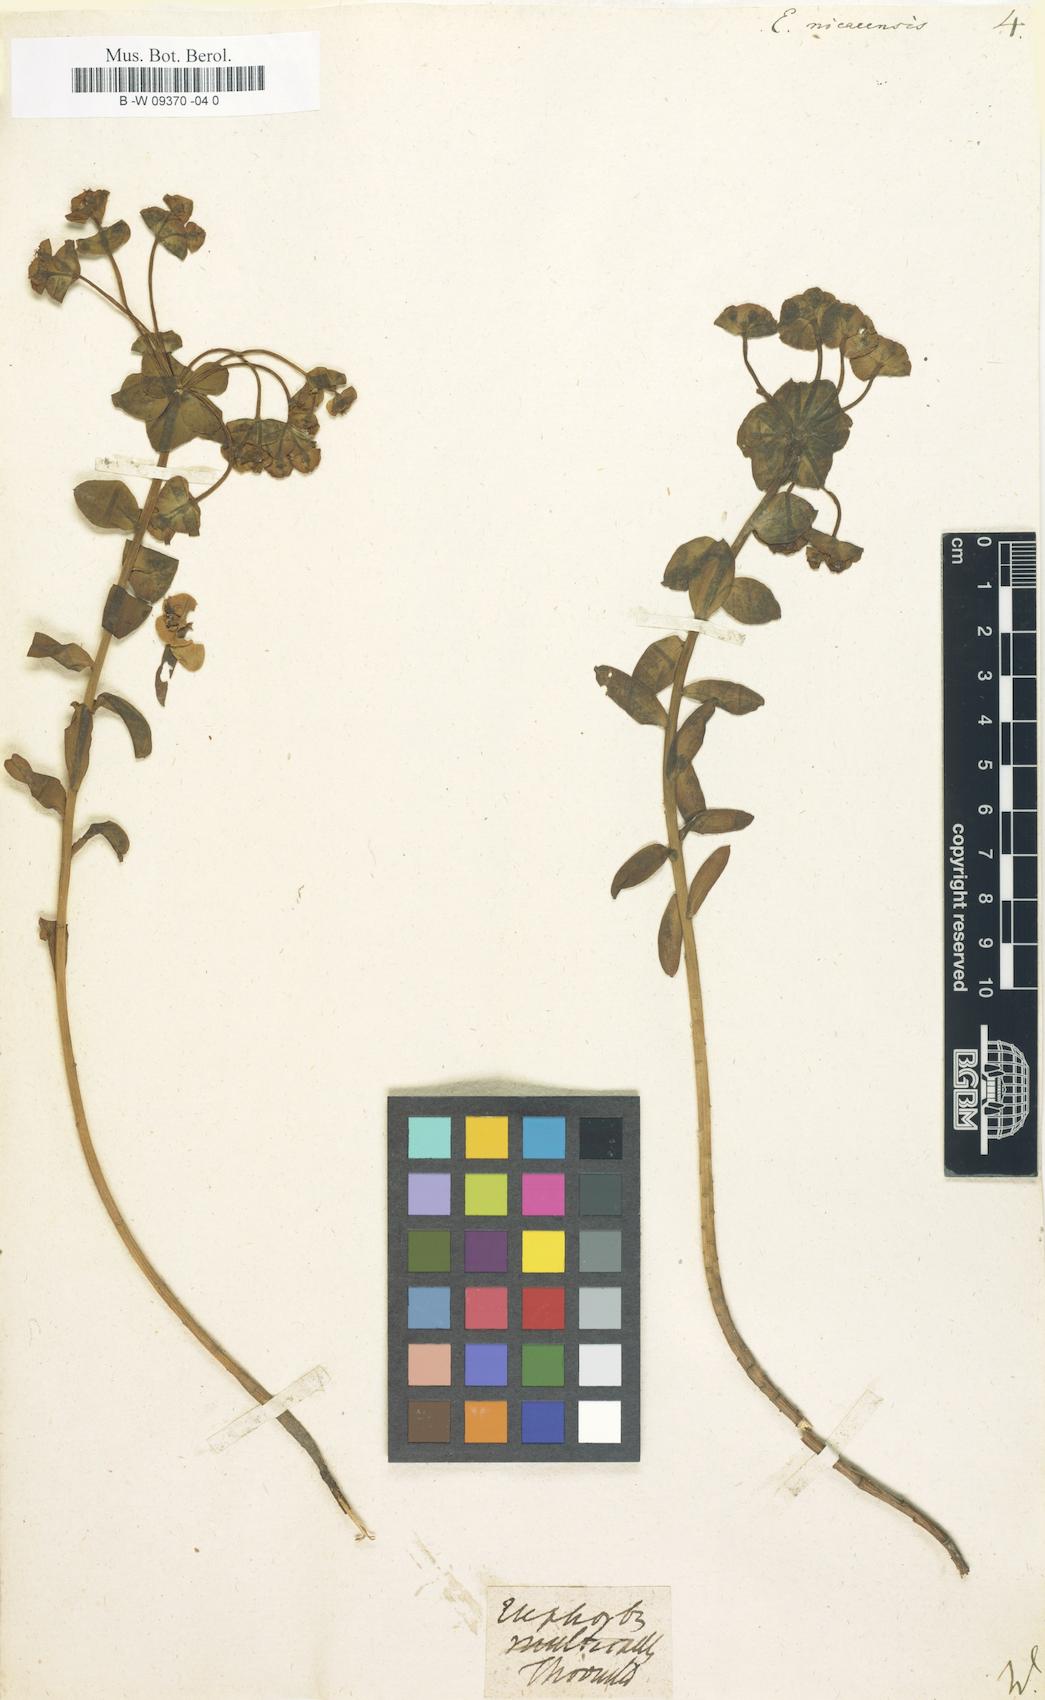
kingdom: Plantae
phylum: Tracheophyta
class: Magnoliopsida
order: Malpighiales
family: Euphorbiaceae
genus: Euphorbia
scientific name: Euphorbia nicaeensis
